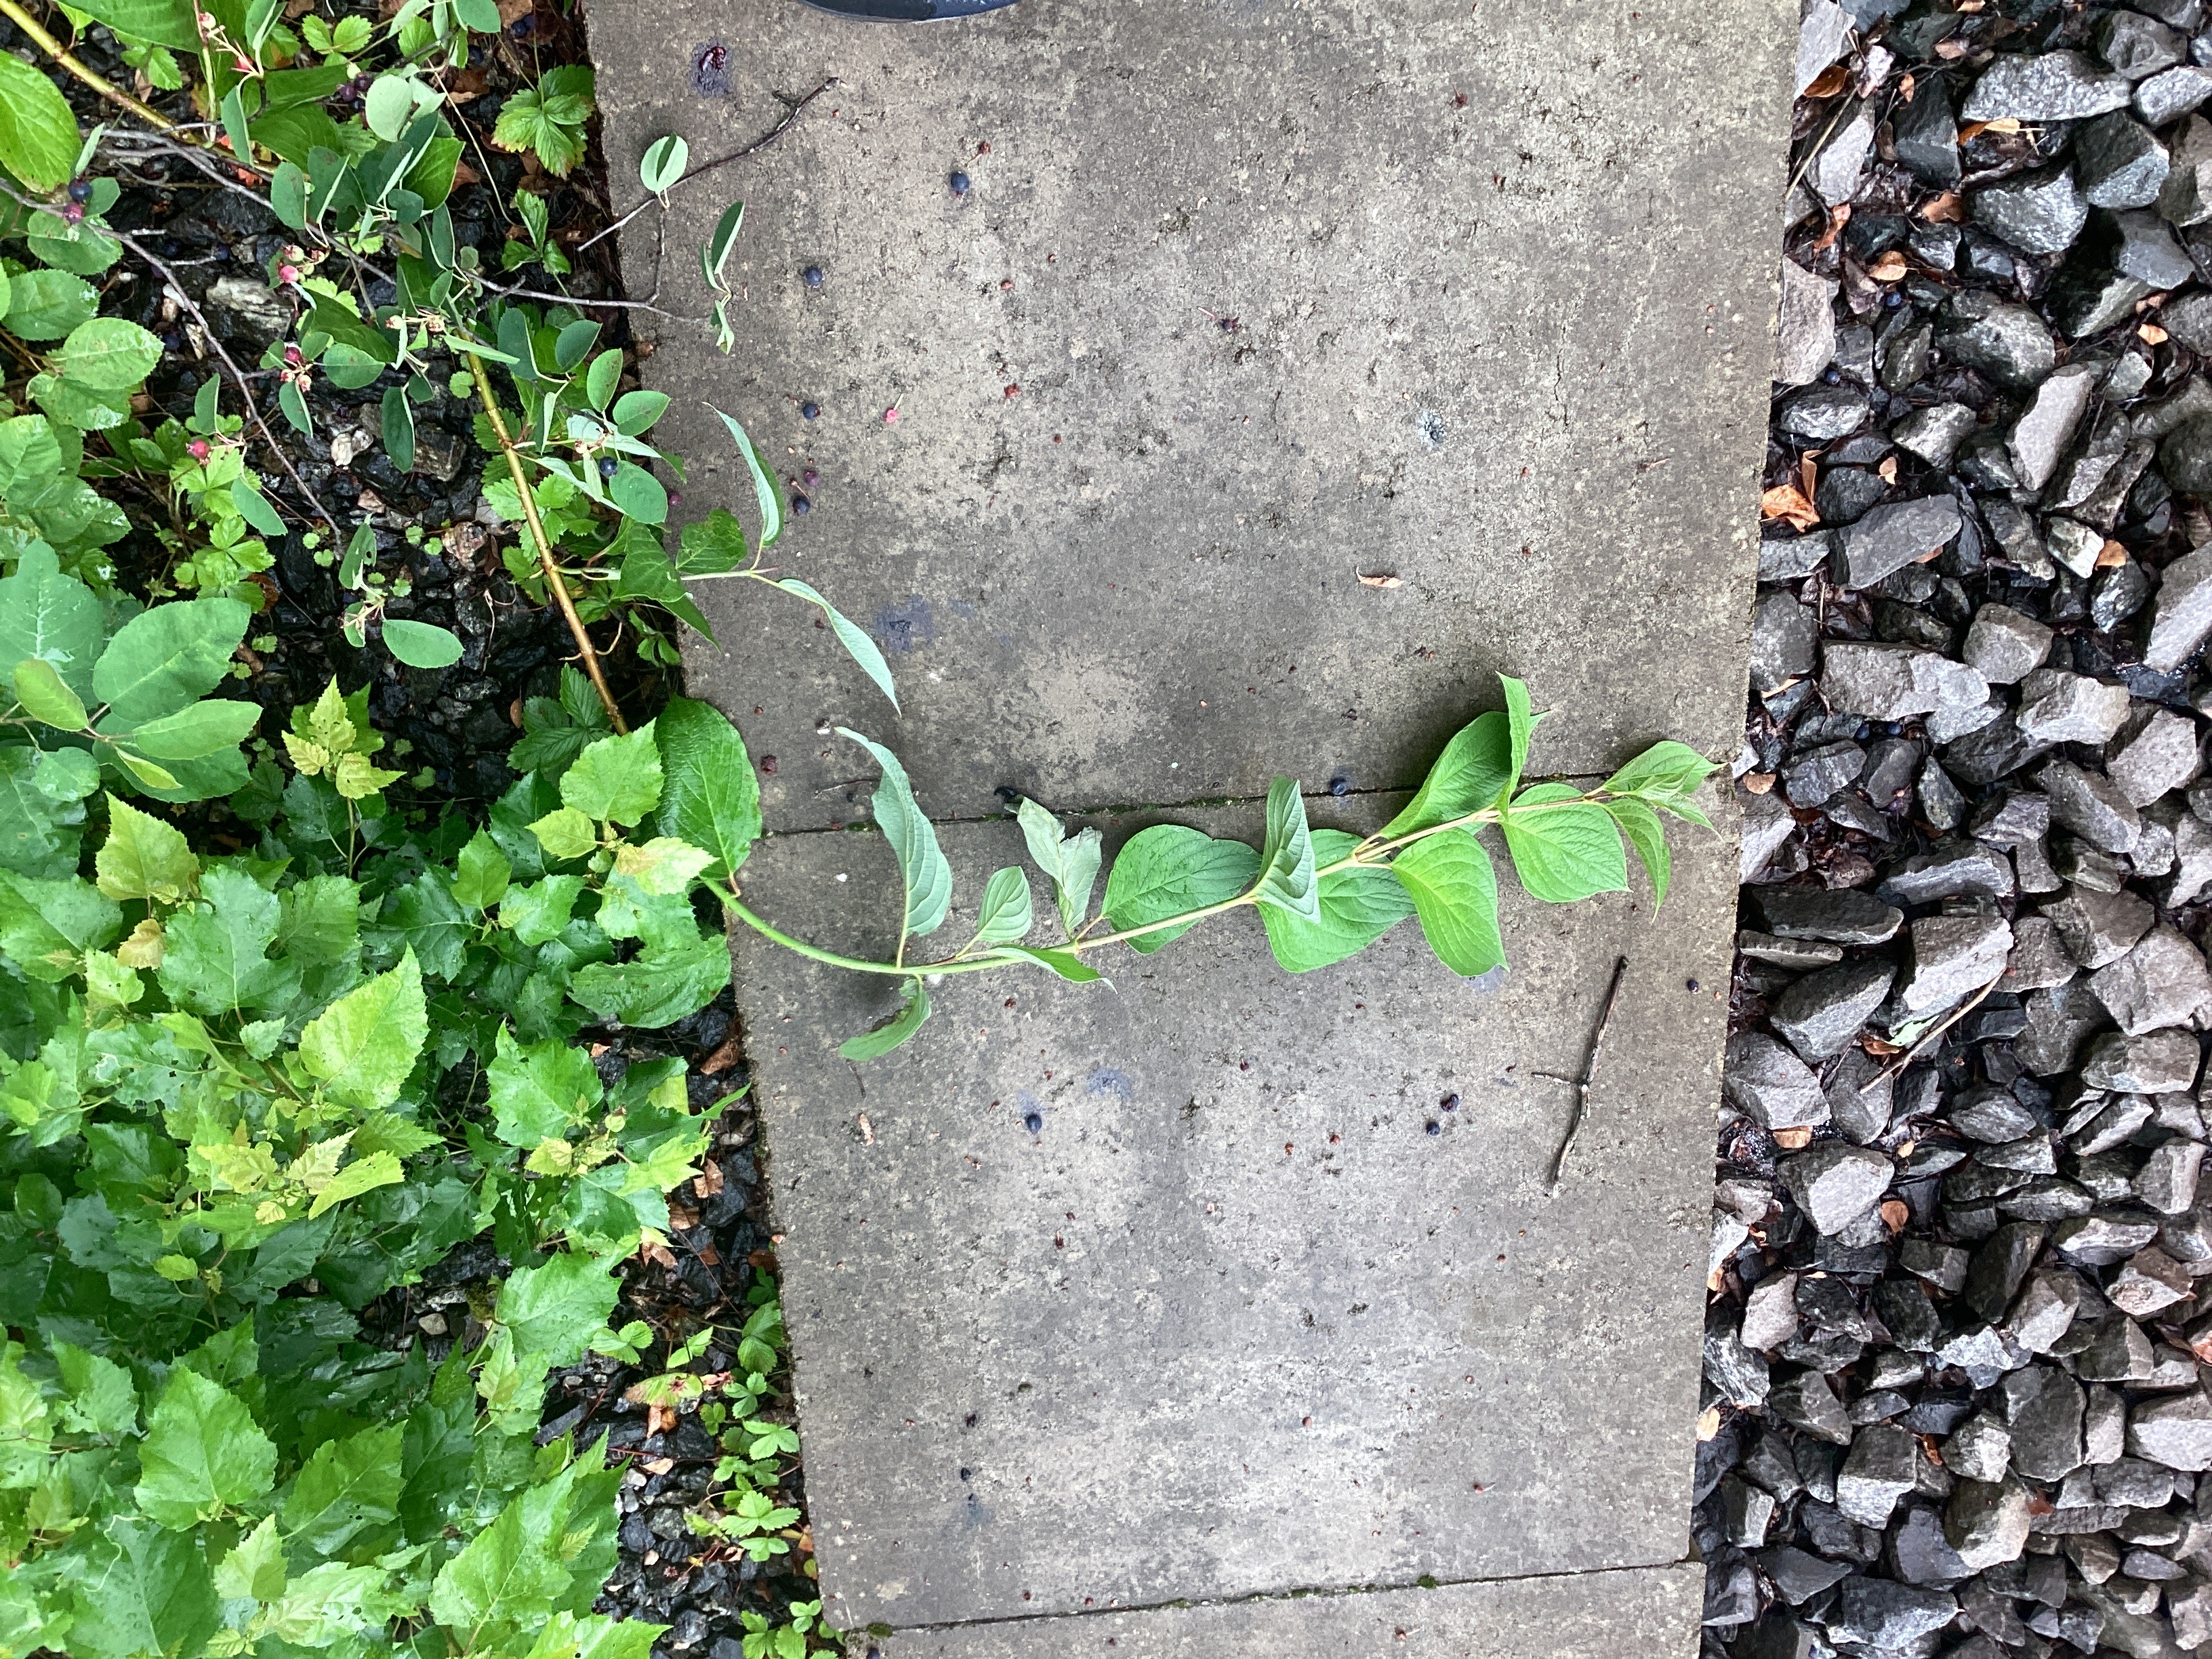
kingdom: Plantae
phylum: Tracheophyta
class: Magnoliopsida
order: Cornales
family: Cornaceae
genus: Cornus
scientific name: Cornus sericea
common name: alaskakornell
